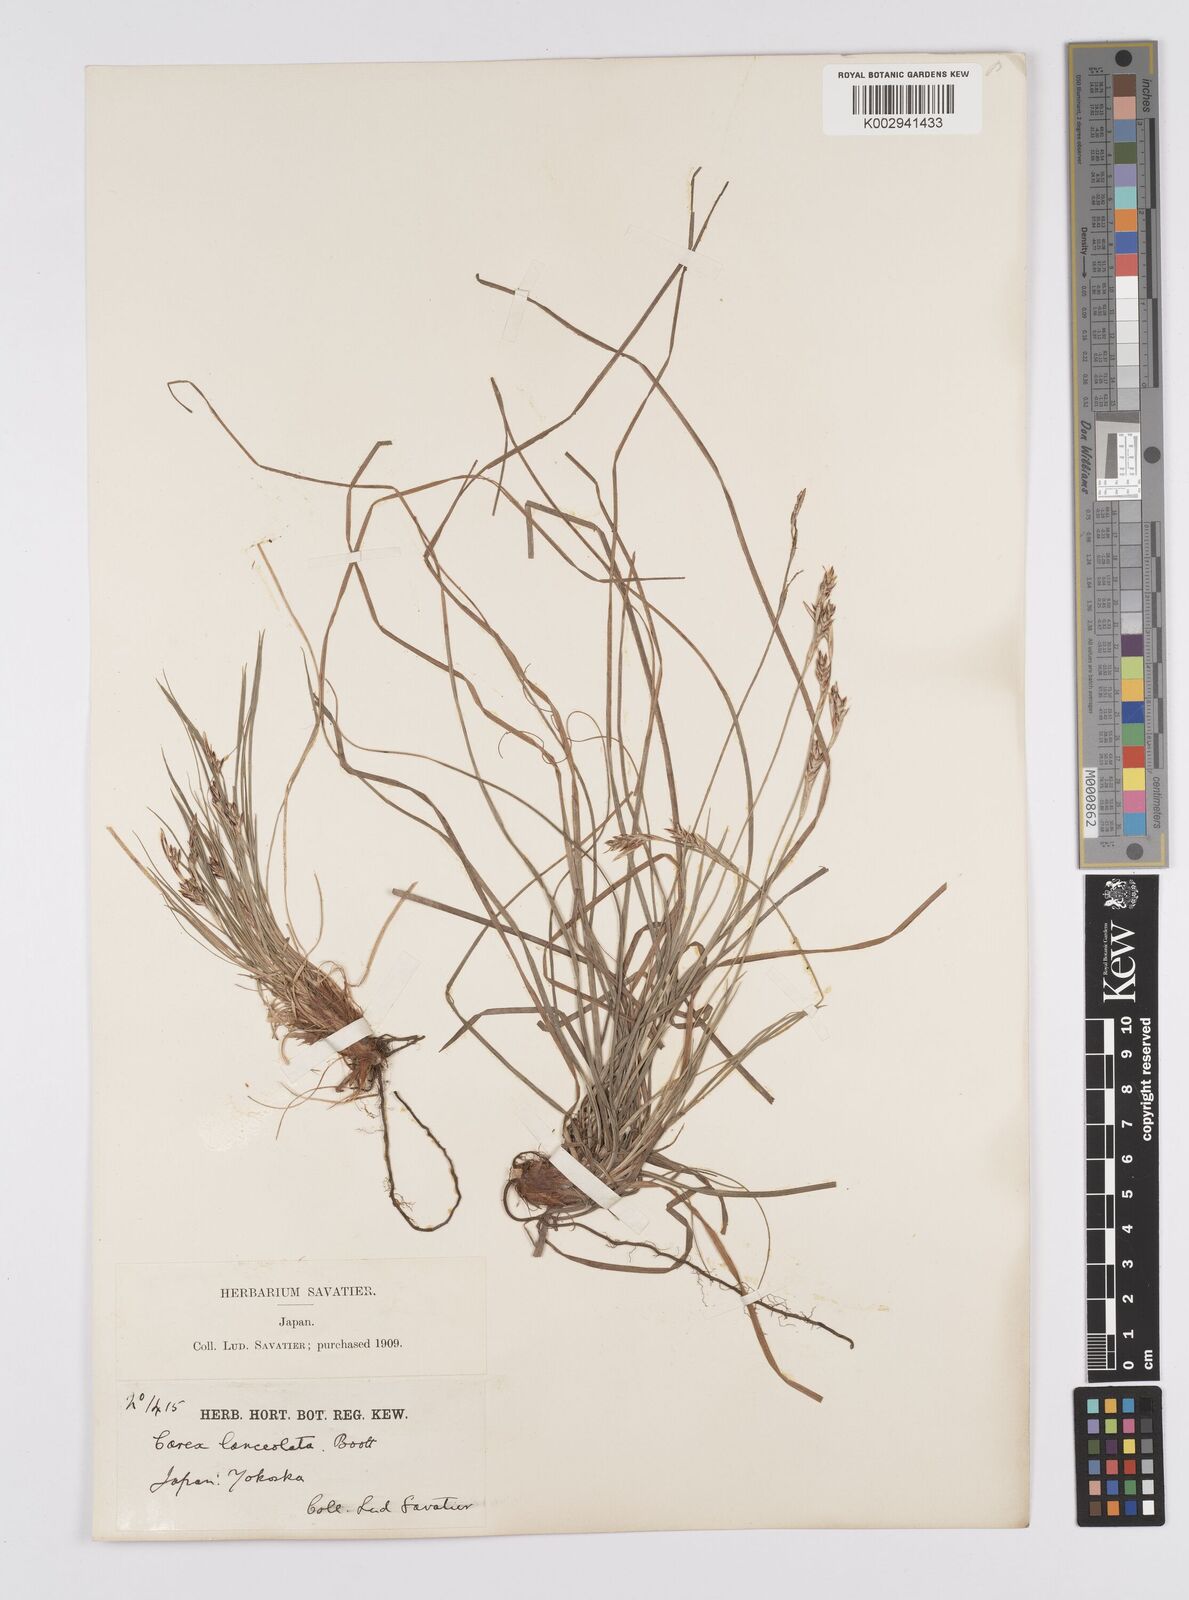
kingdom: Plantae
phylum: Tracheophyta
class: Liliopsida
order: Poales
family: Cyperaceae
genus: Carex
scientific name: Carex lanceolata
